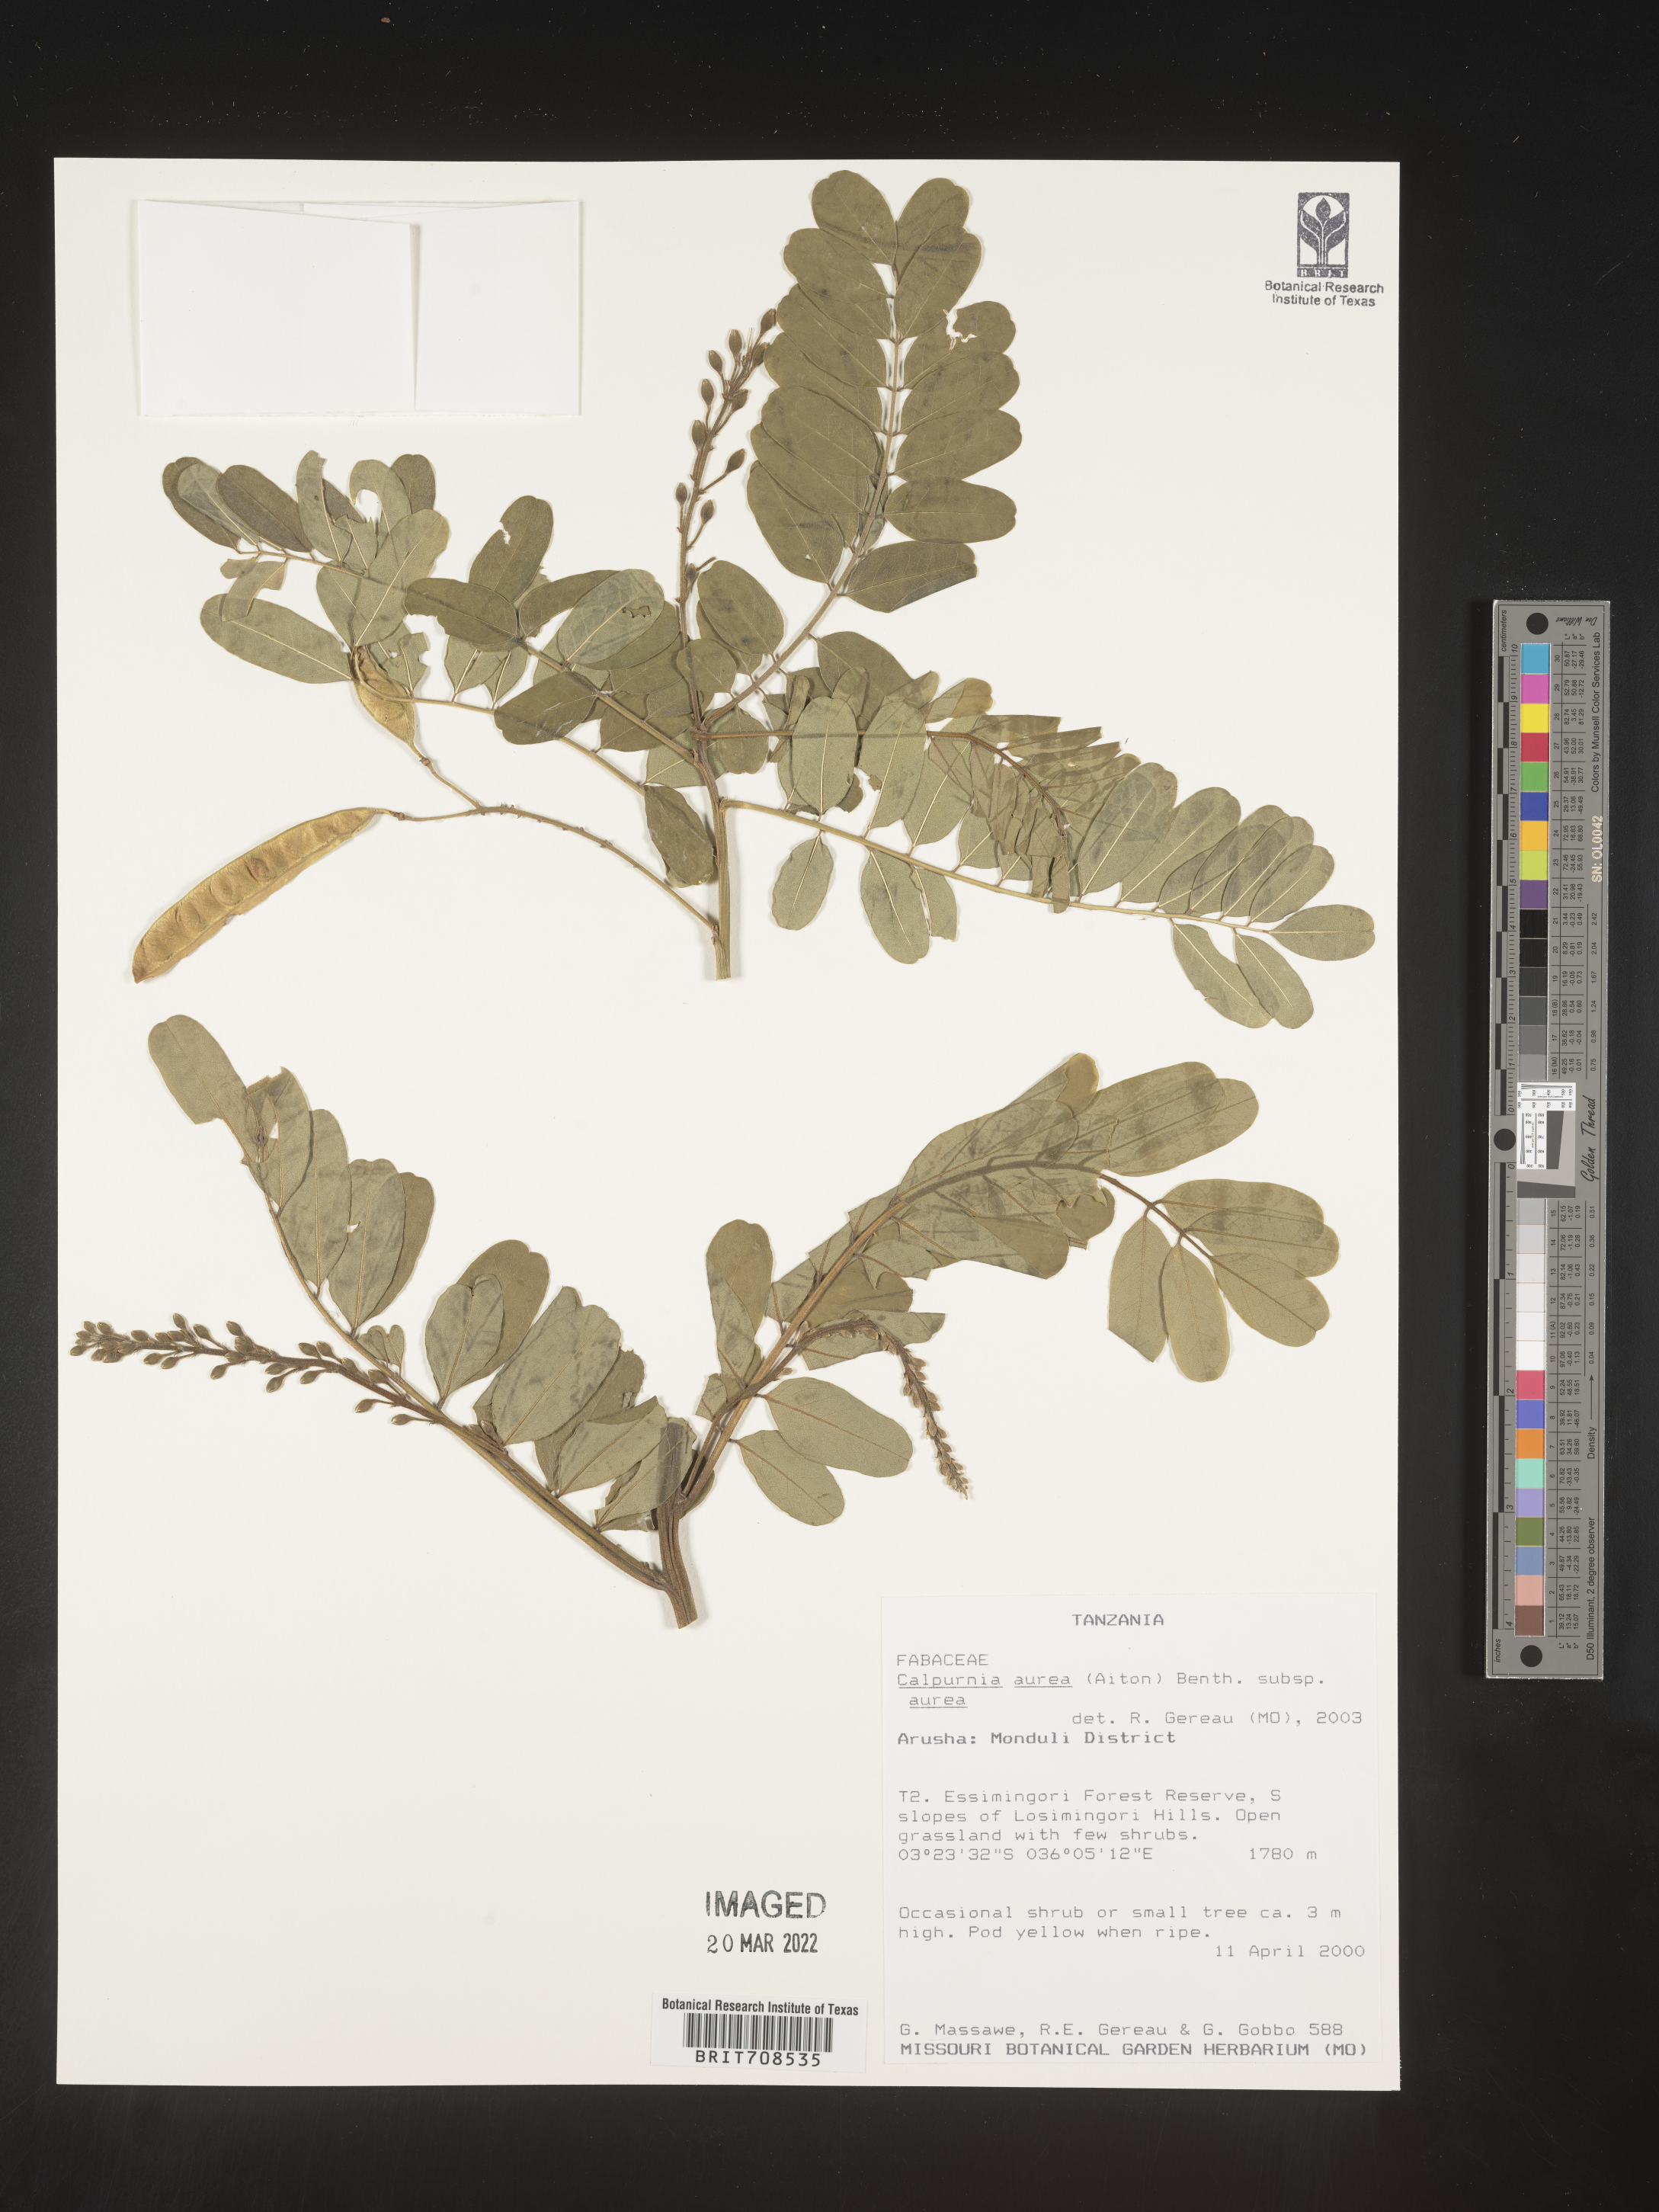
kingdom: Plantae
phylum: Tracheophyta
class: Magnoliopsida
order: Fabales
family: Fabaceae
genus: Calpurnia
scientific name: Calpurnia
